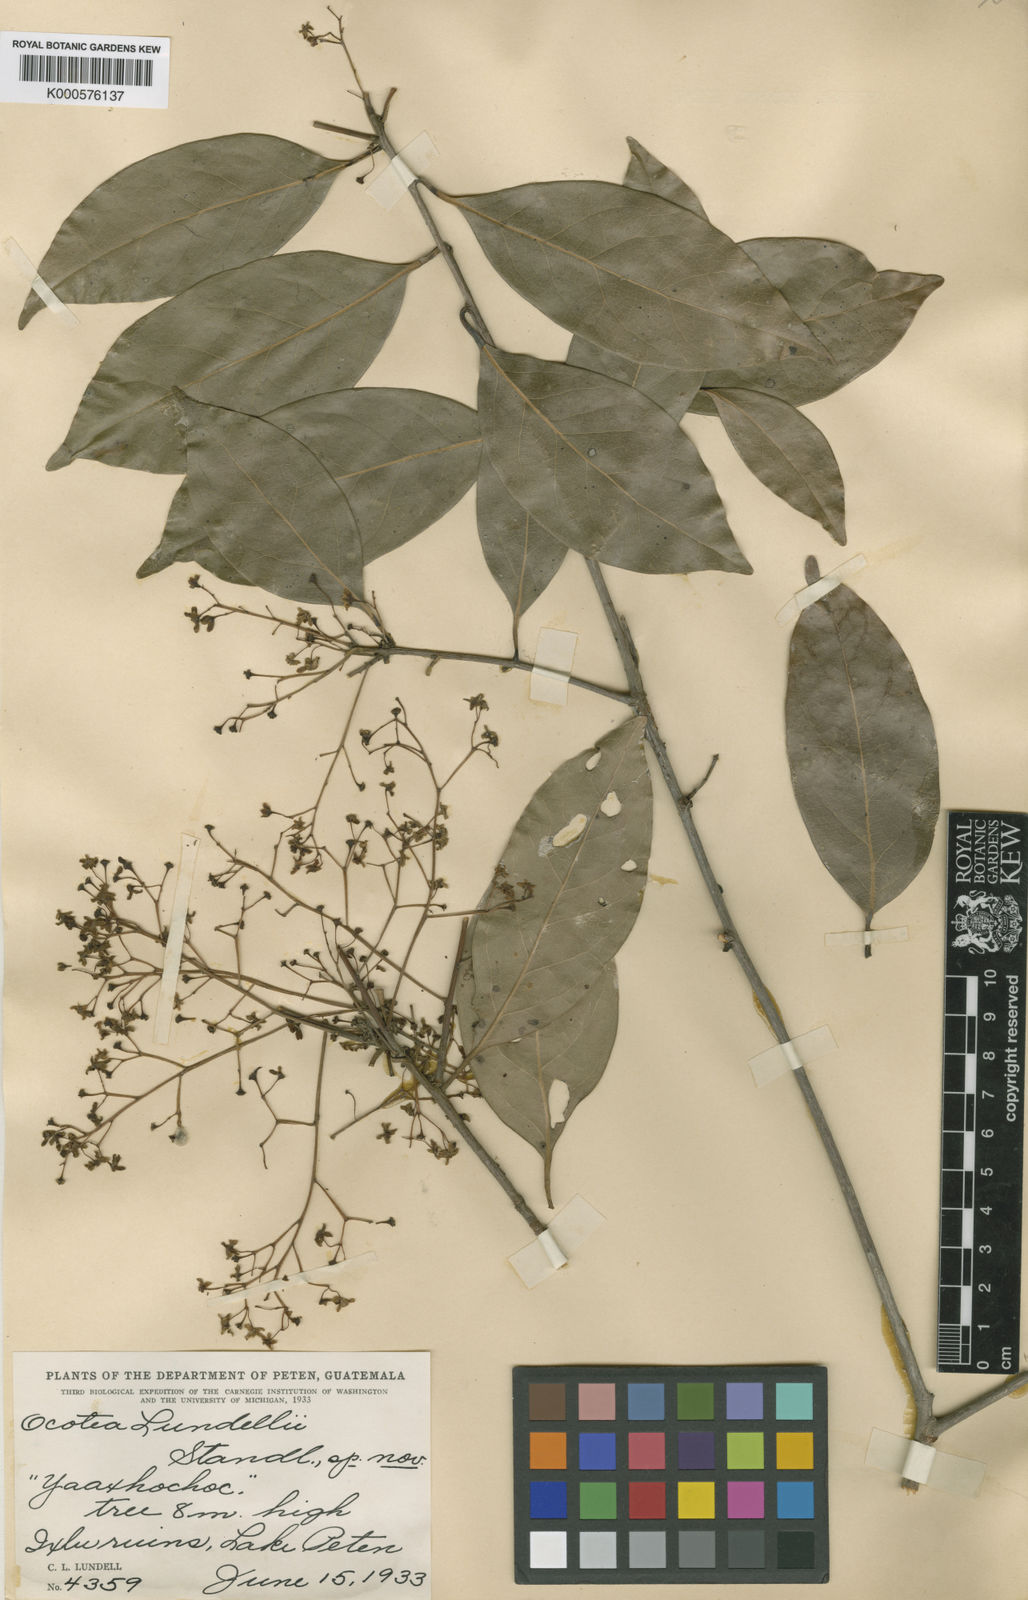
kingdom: Plantae
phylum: Tracheophyta
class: Magnoliopsida
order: Laurales
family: Lauraceae
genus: Damburneya
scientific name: Damburneya coriacea
